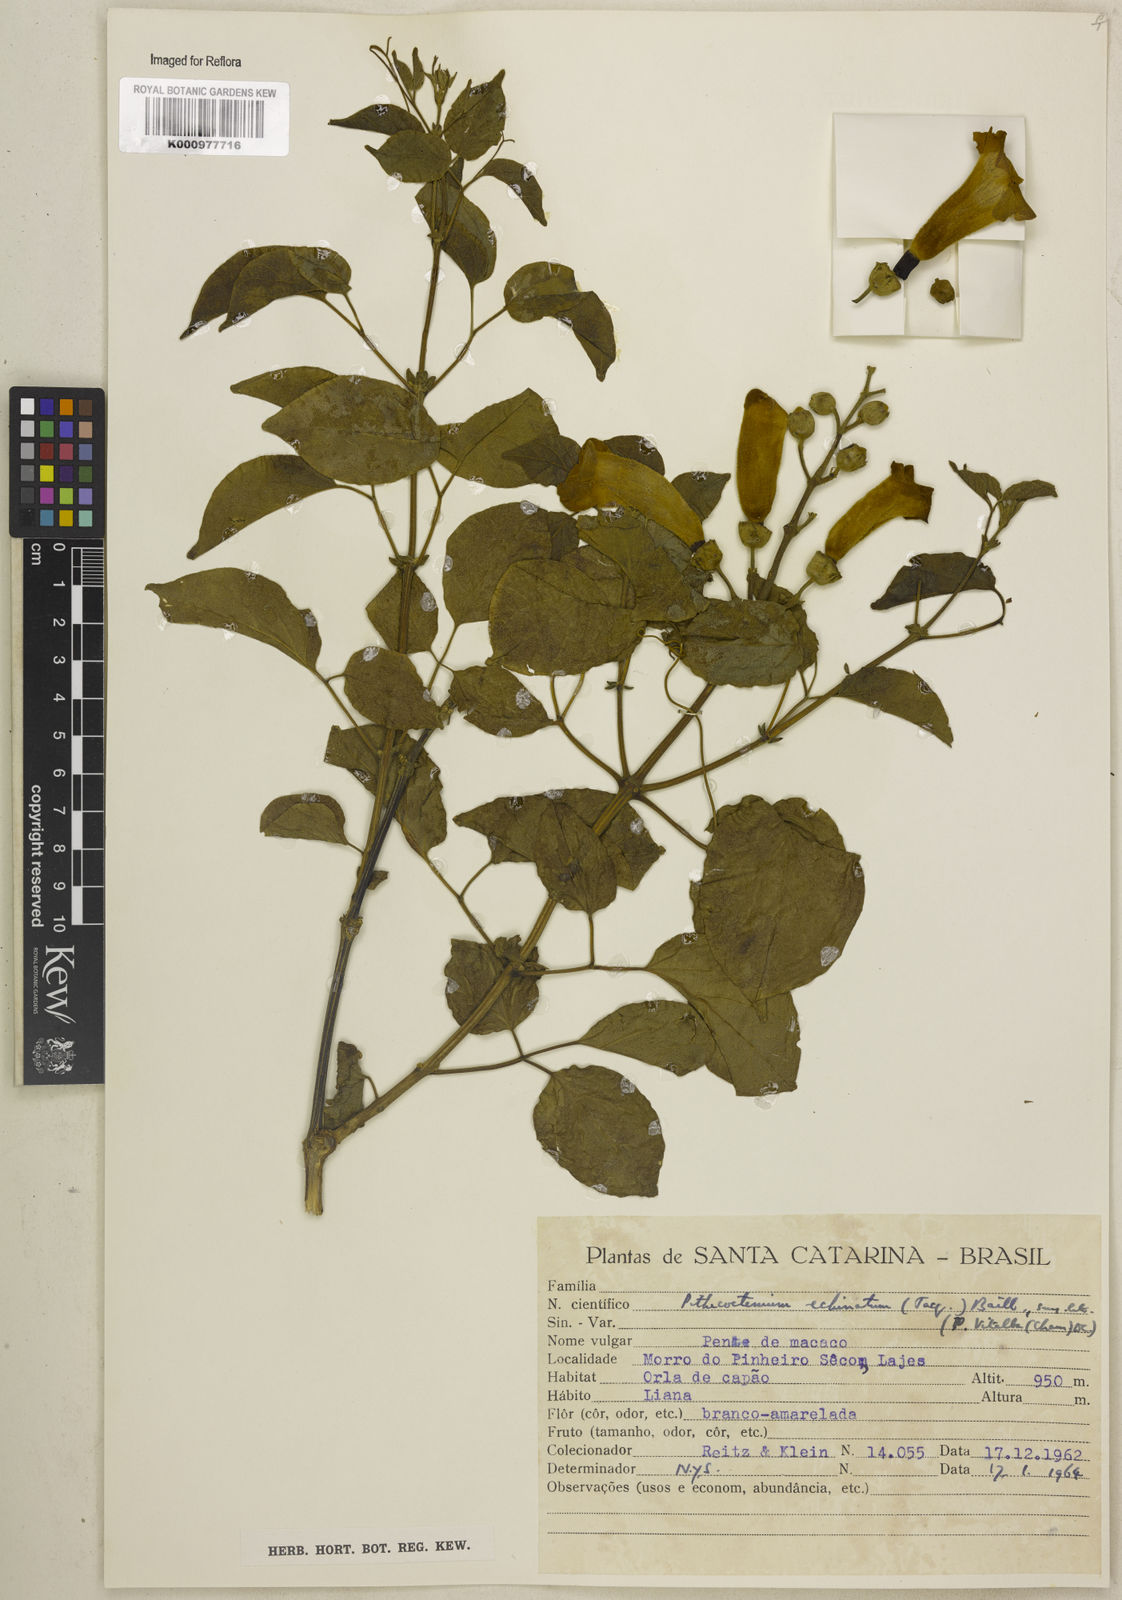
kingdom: Plantae
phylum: Tracheophyta
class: Magnoliopsida
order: Lamiales
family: Bignoniaceae
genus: Amphilophium
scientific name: Amphilophium crucigerum
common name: Monkey comb
